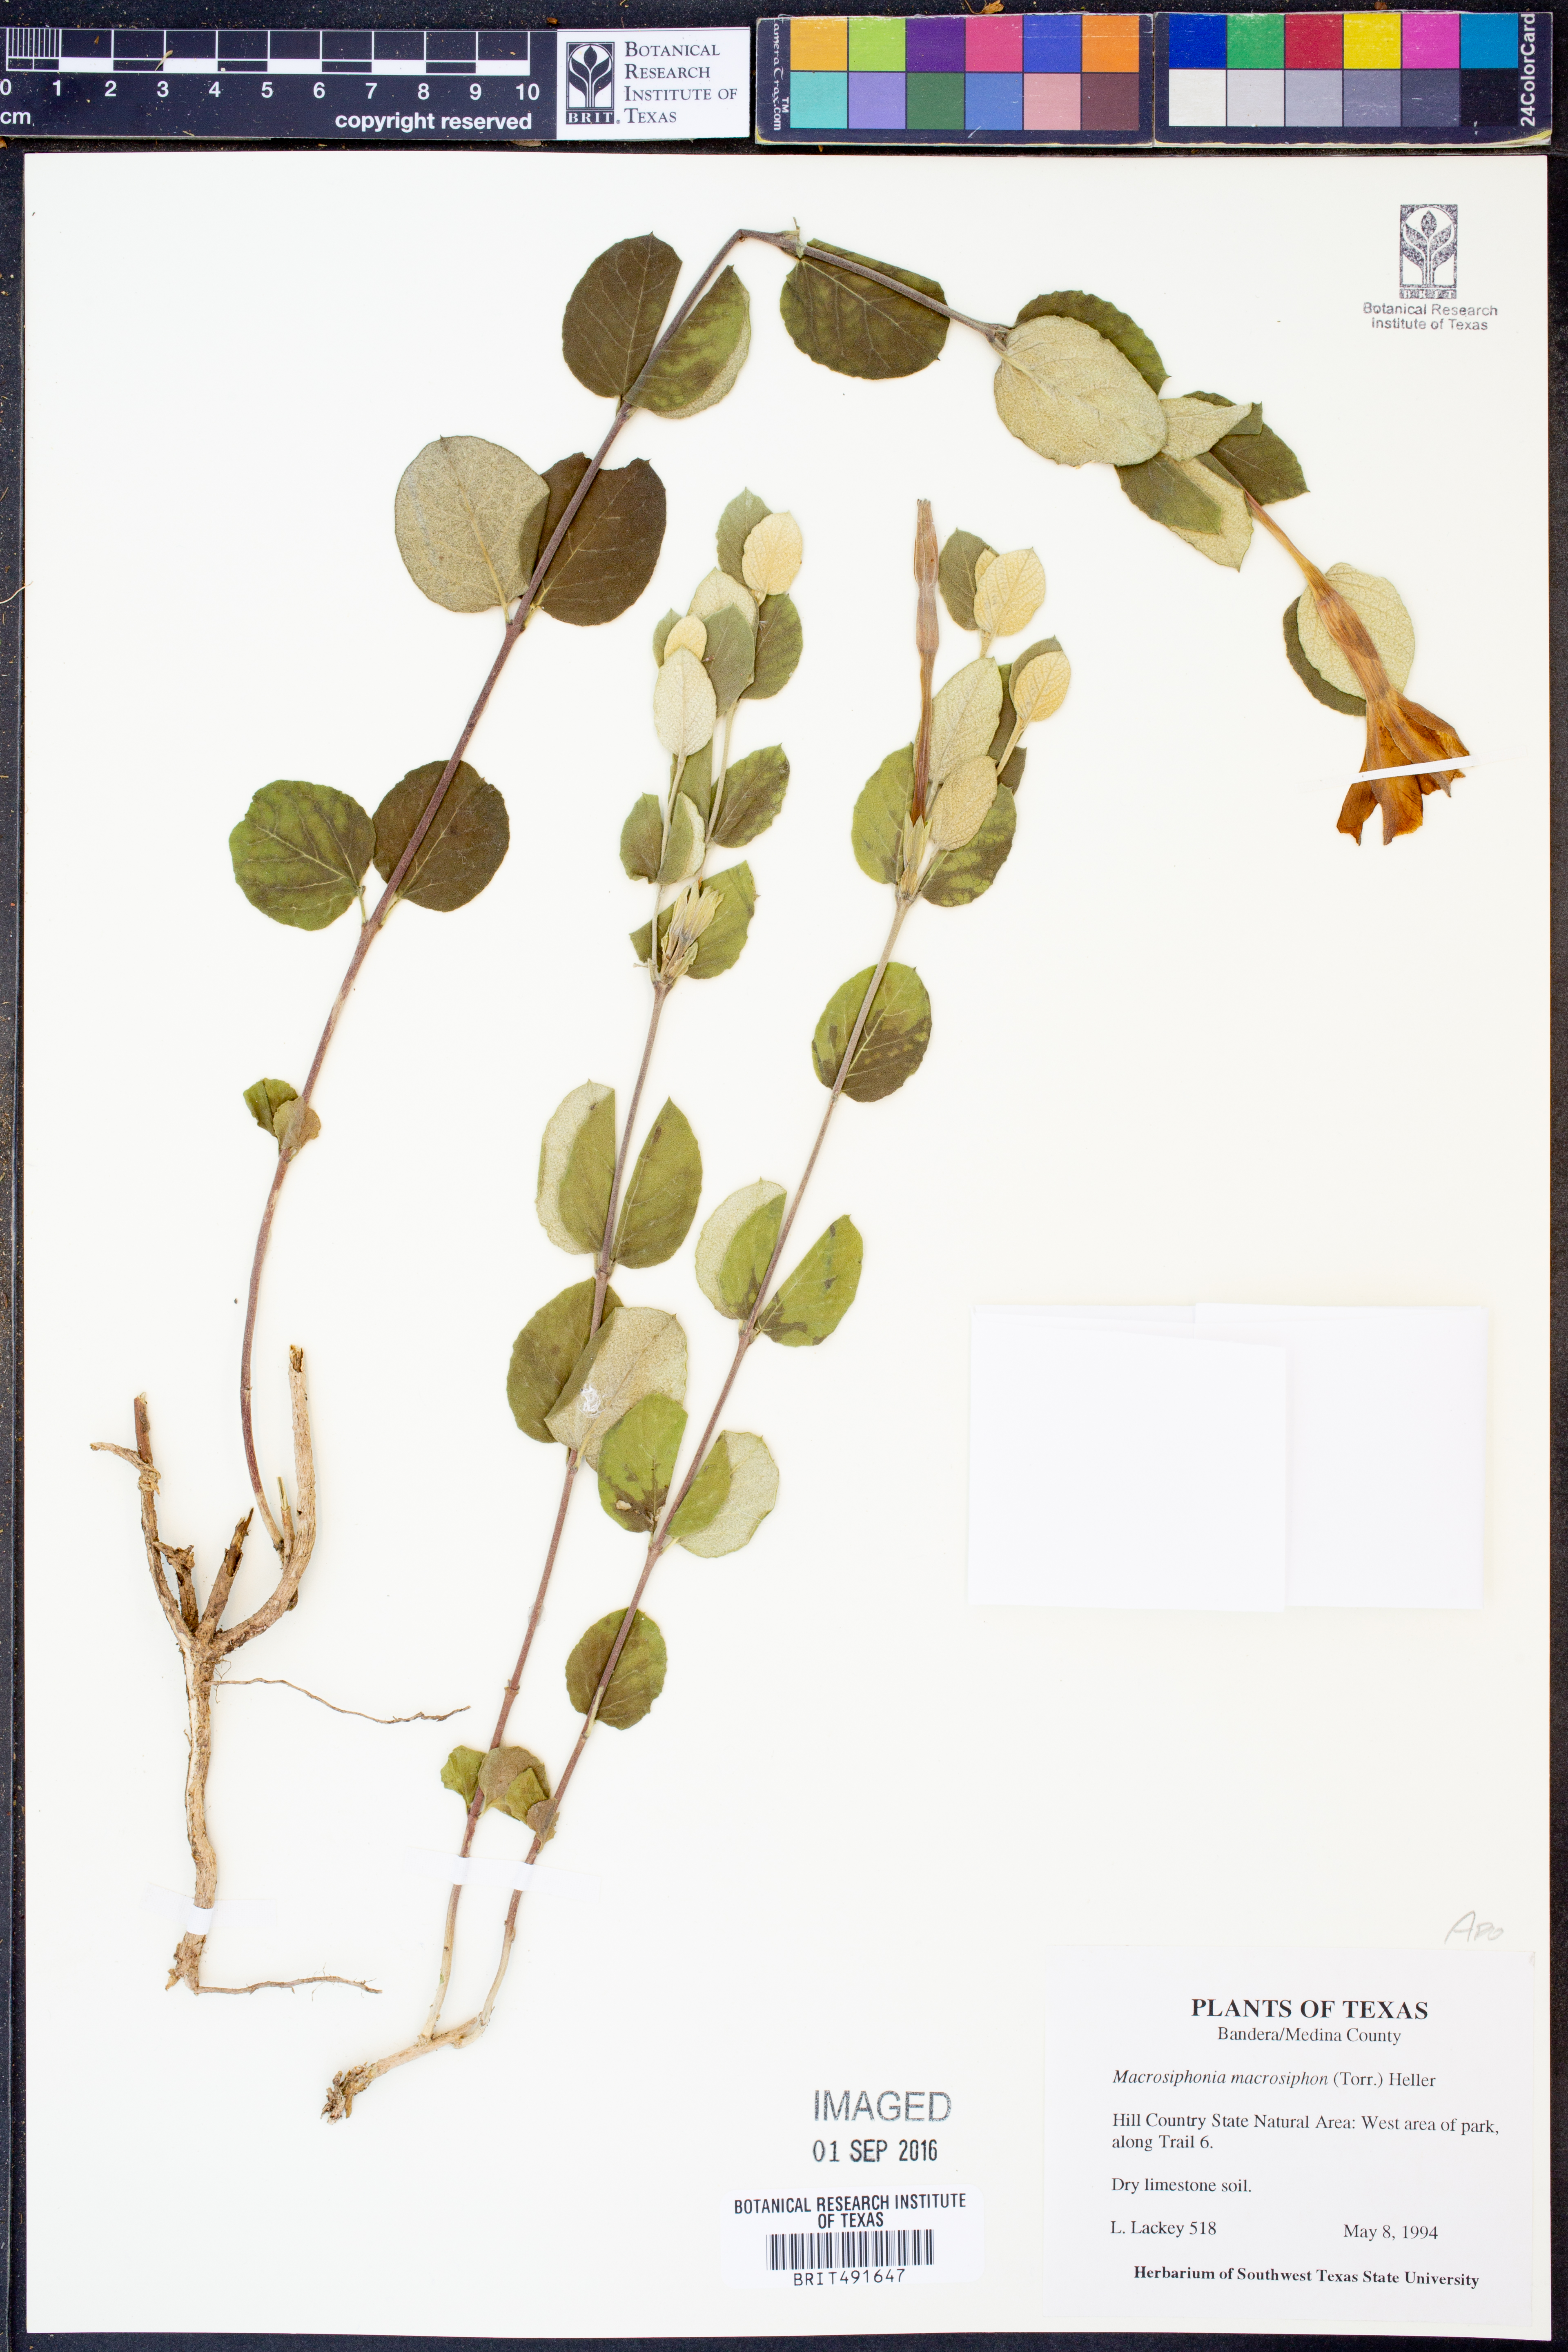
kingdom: Plantae
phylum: Tracheophyta
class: Magnoliopsida
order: Gentianales
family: Apocynaceae
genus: Mandevilla
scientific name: Mandevilla macrosiphon
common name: Plateau rocktrumpet
